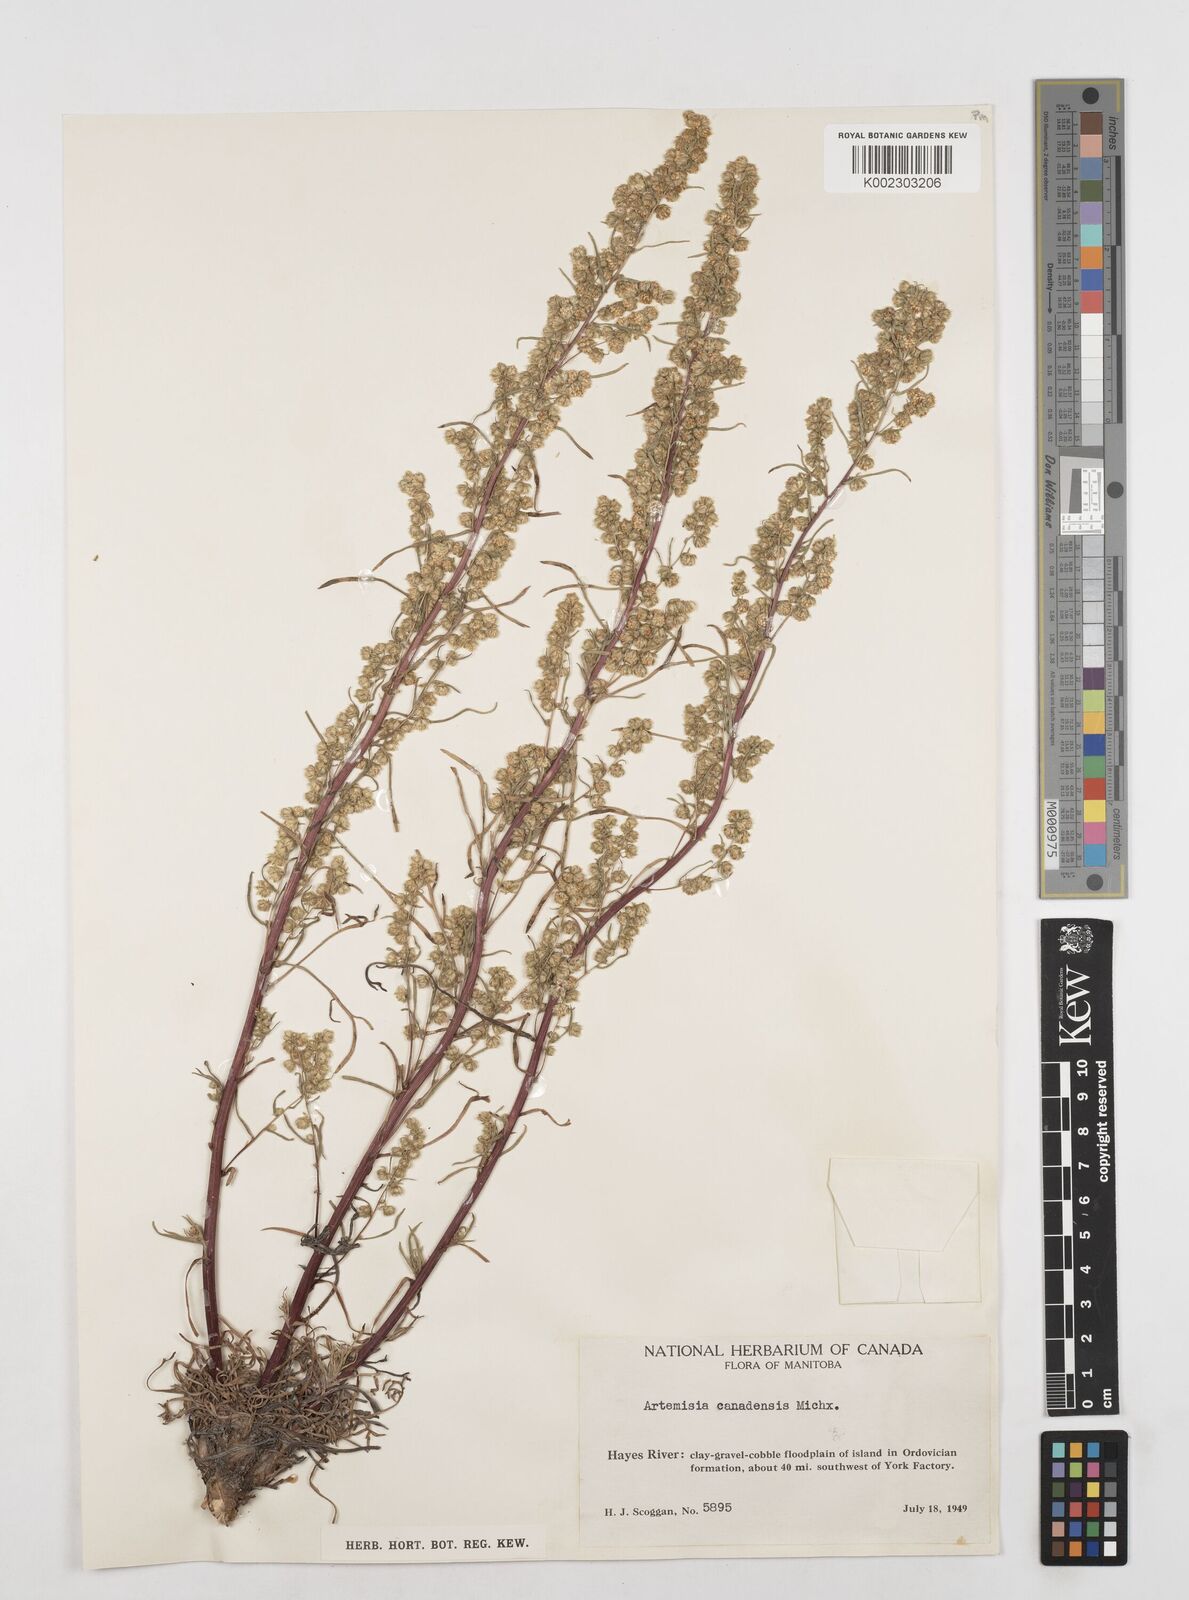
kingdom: Plantae
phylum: Tracheophyta
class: Magnoliopsida
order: Asterales
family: Asteraceae
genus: Artemisia
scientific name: Artemisia campestris
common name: Field wormwood
